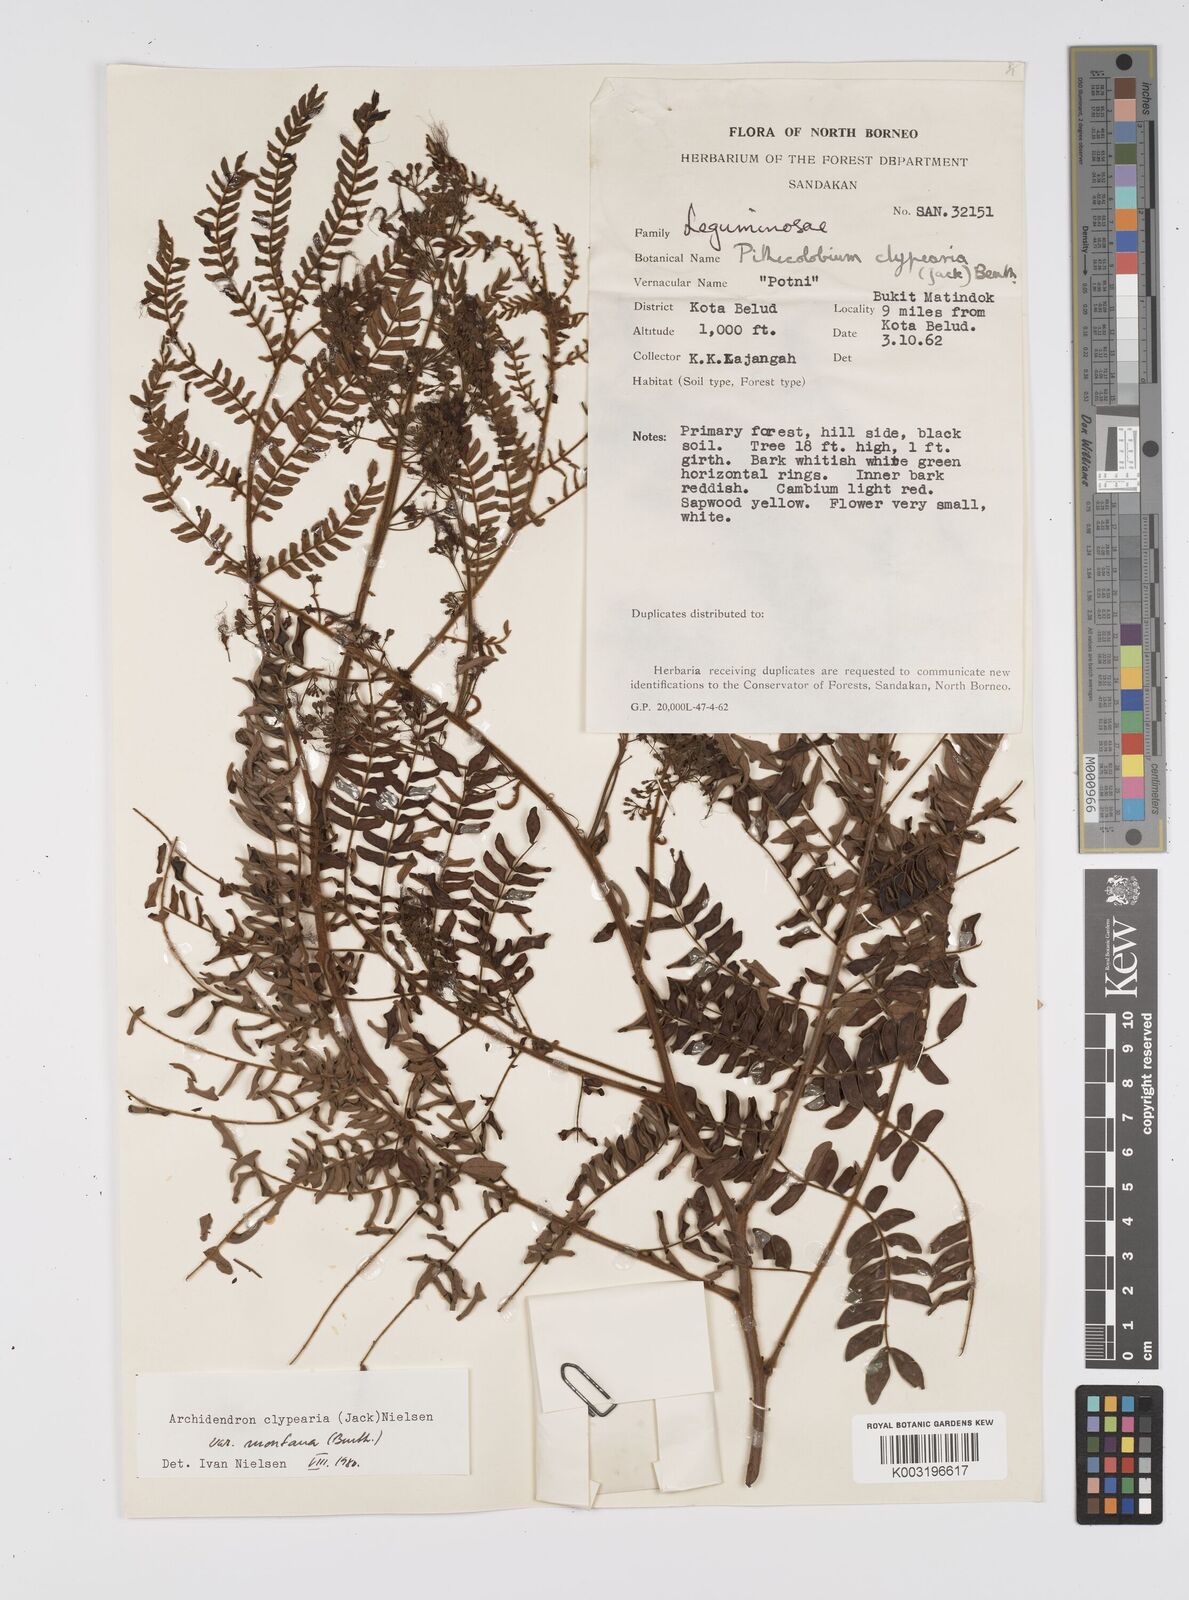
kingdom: Plantae
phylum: Tracheophyta
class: Magnoliopsida
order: Fabales
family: Fabaceae
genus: Archidendron
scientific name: Archidendron clypearia
